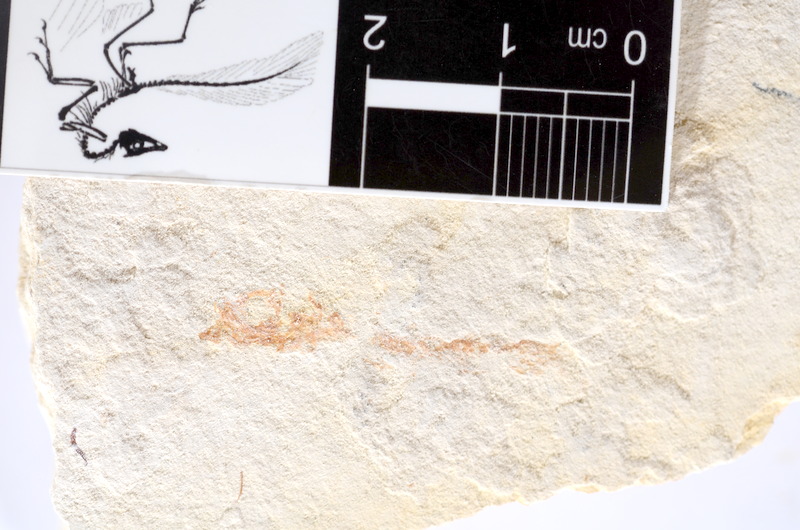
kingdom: Animalia
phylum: Chordata
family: Ascalaboidae
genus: Tharsis
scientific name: Tharsis dubius
